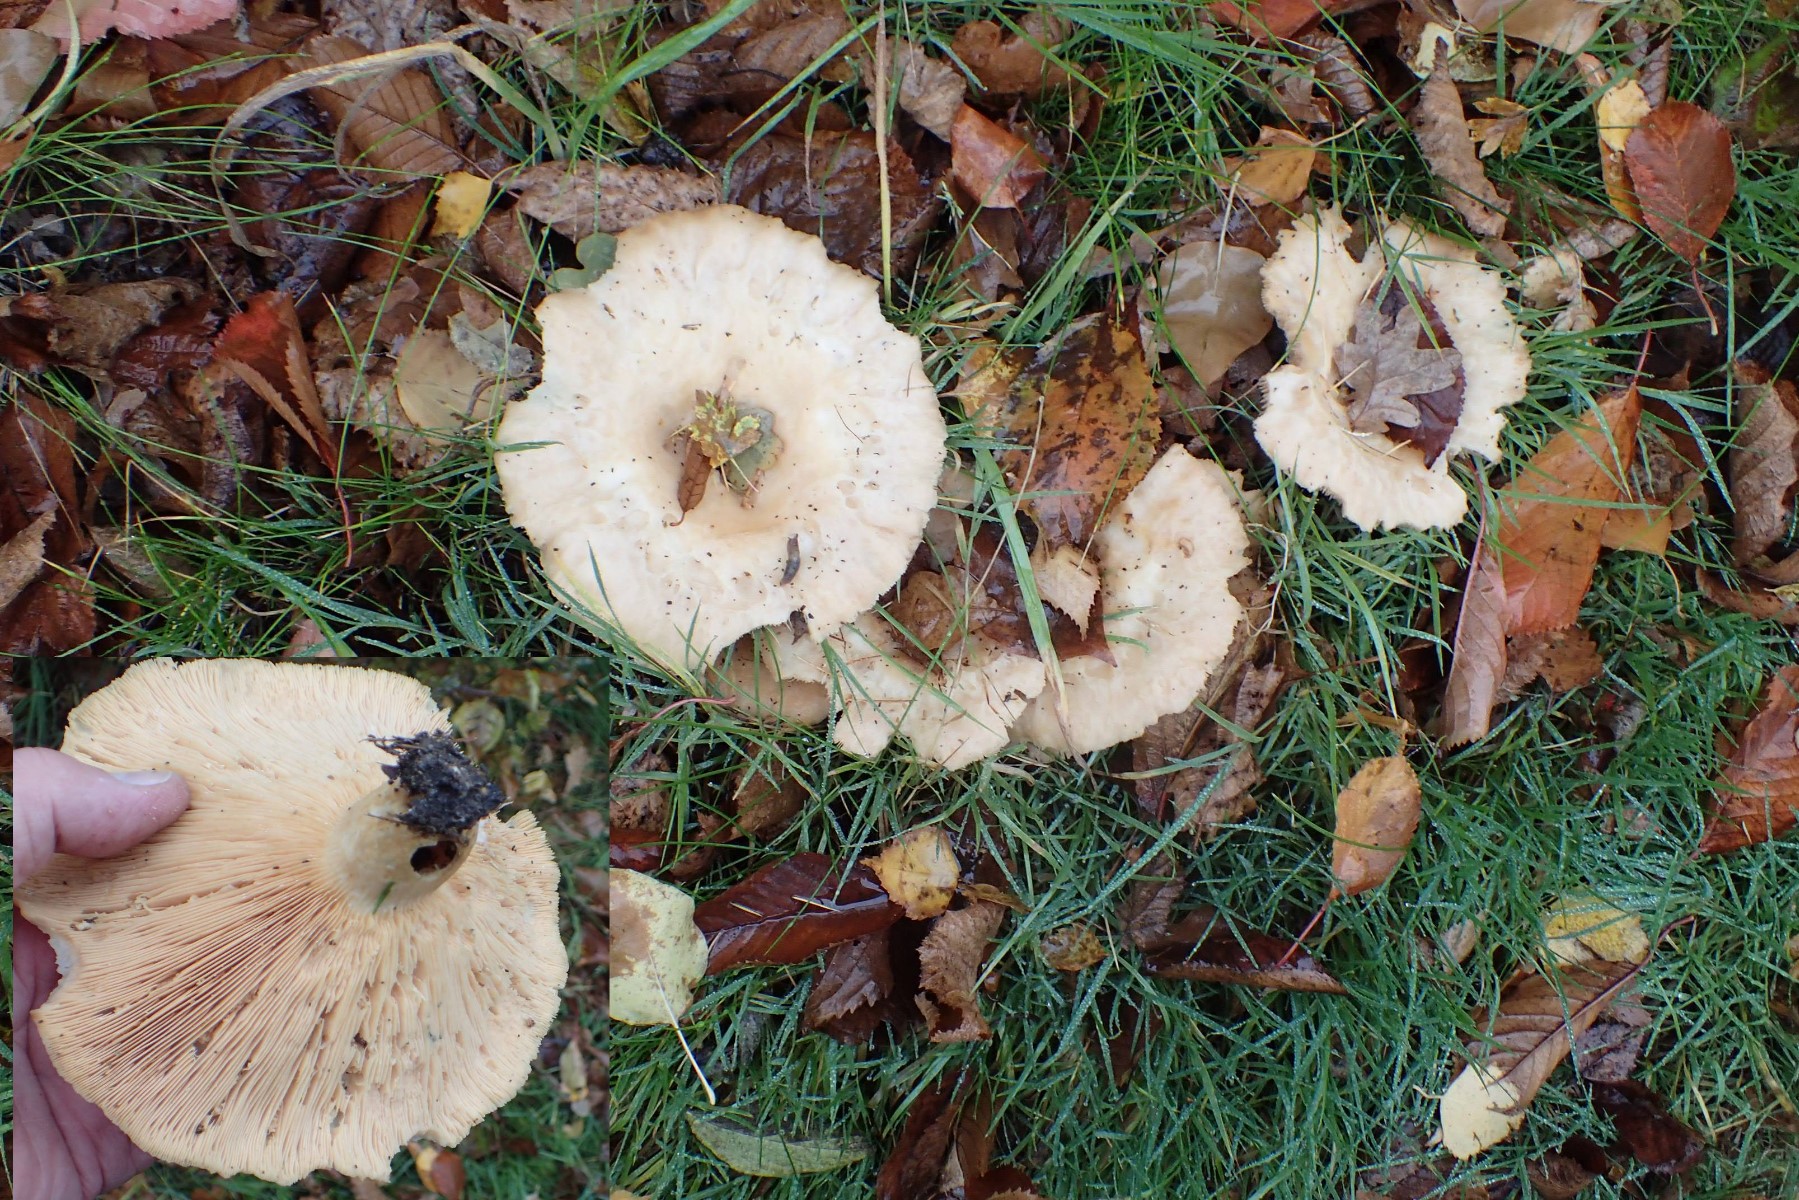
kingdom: Fungi
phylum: Basidiomycota
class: Agaricomycetes
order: Russulales
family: Russulaceae
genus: Lactarius
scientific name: Lactarius controversus
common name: rosabladet mælkehat
